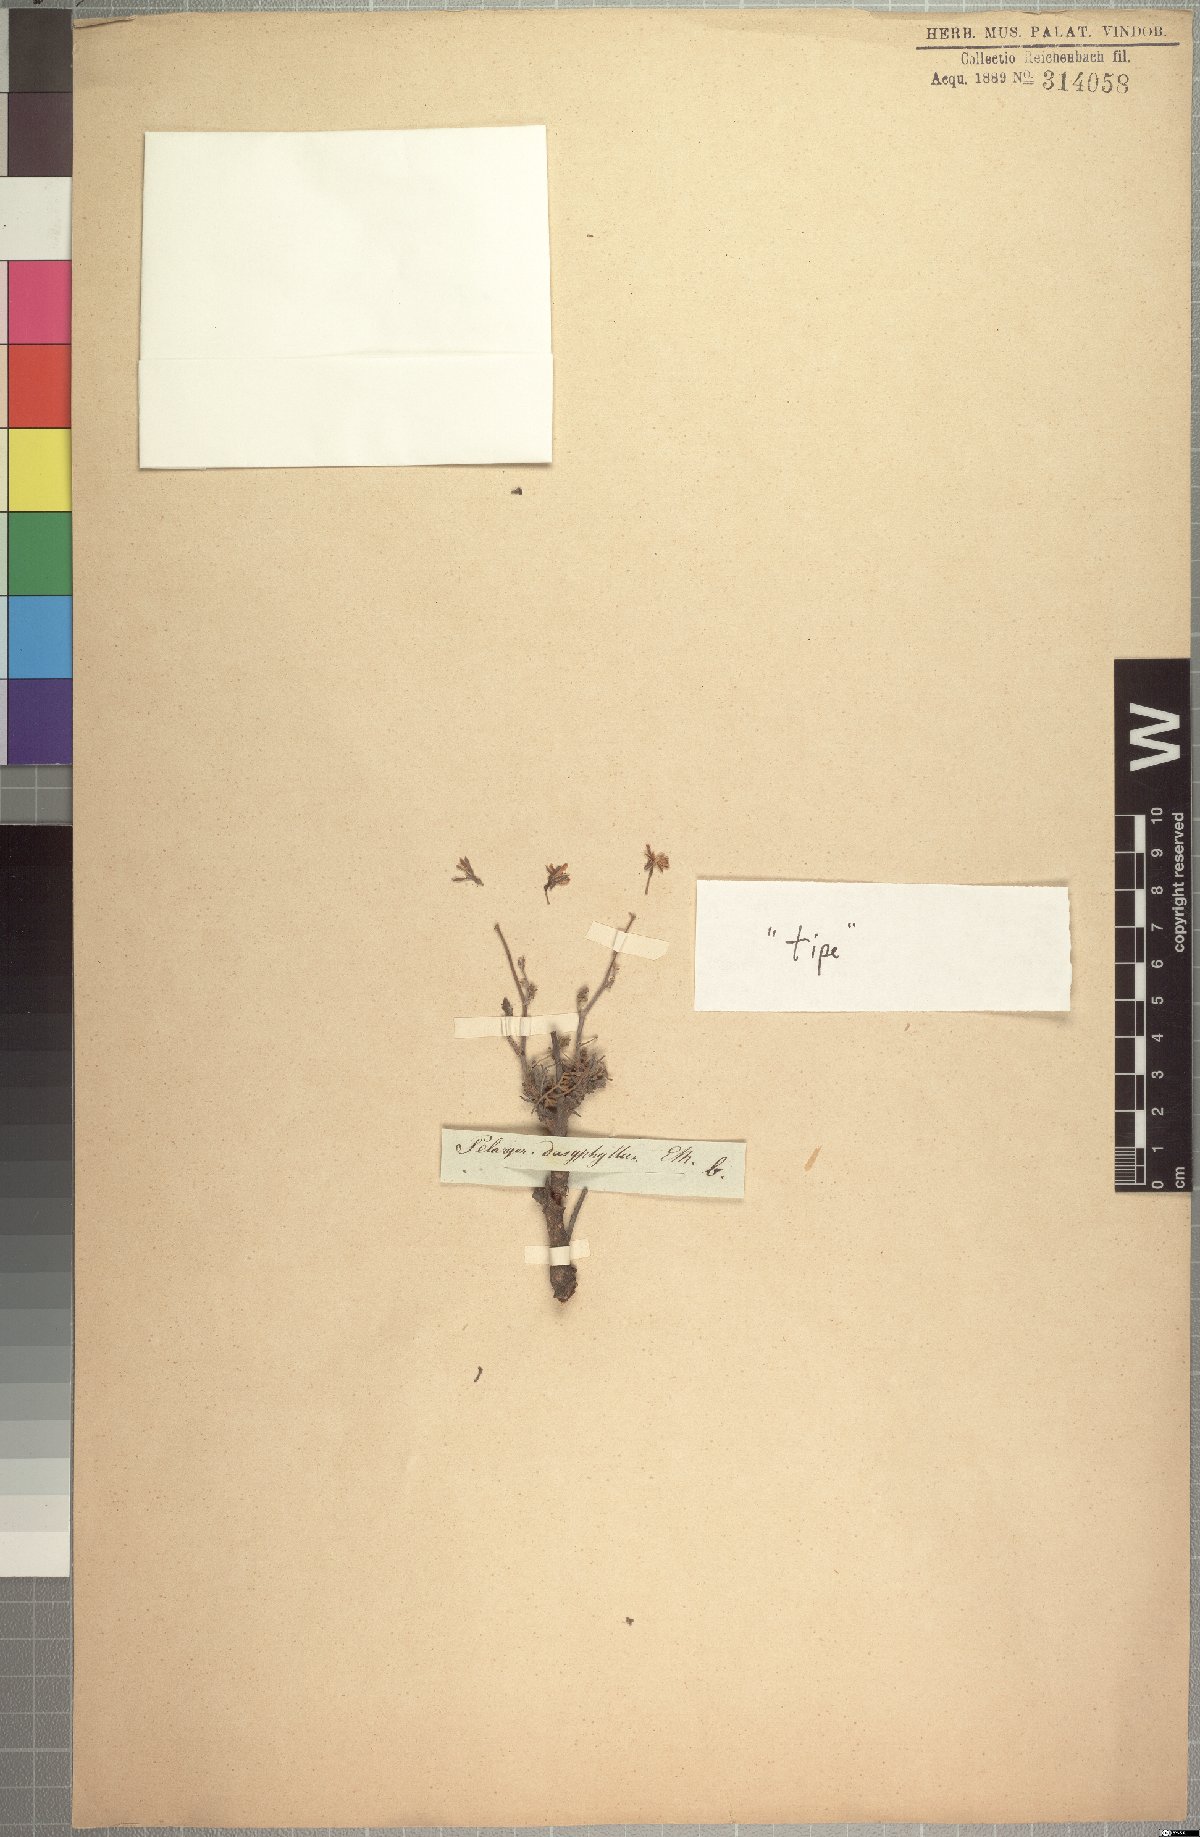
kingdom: Plantae
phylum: Tracheophyta
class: Magnoliopsida
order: Geraniales
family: Geraniaceae
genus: Pelargonium
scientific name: Pelargonium dasyphyllum
